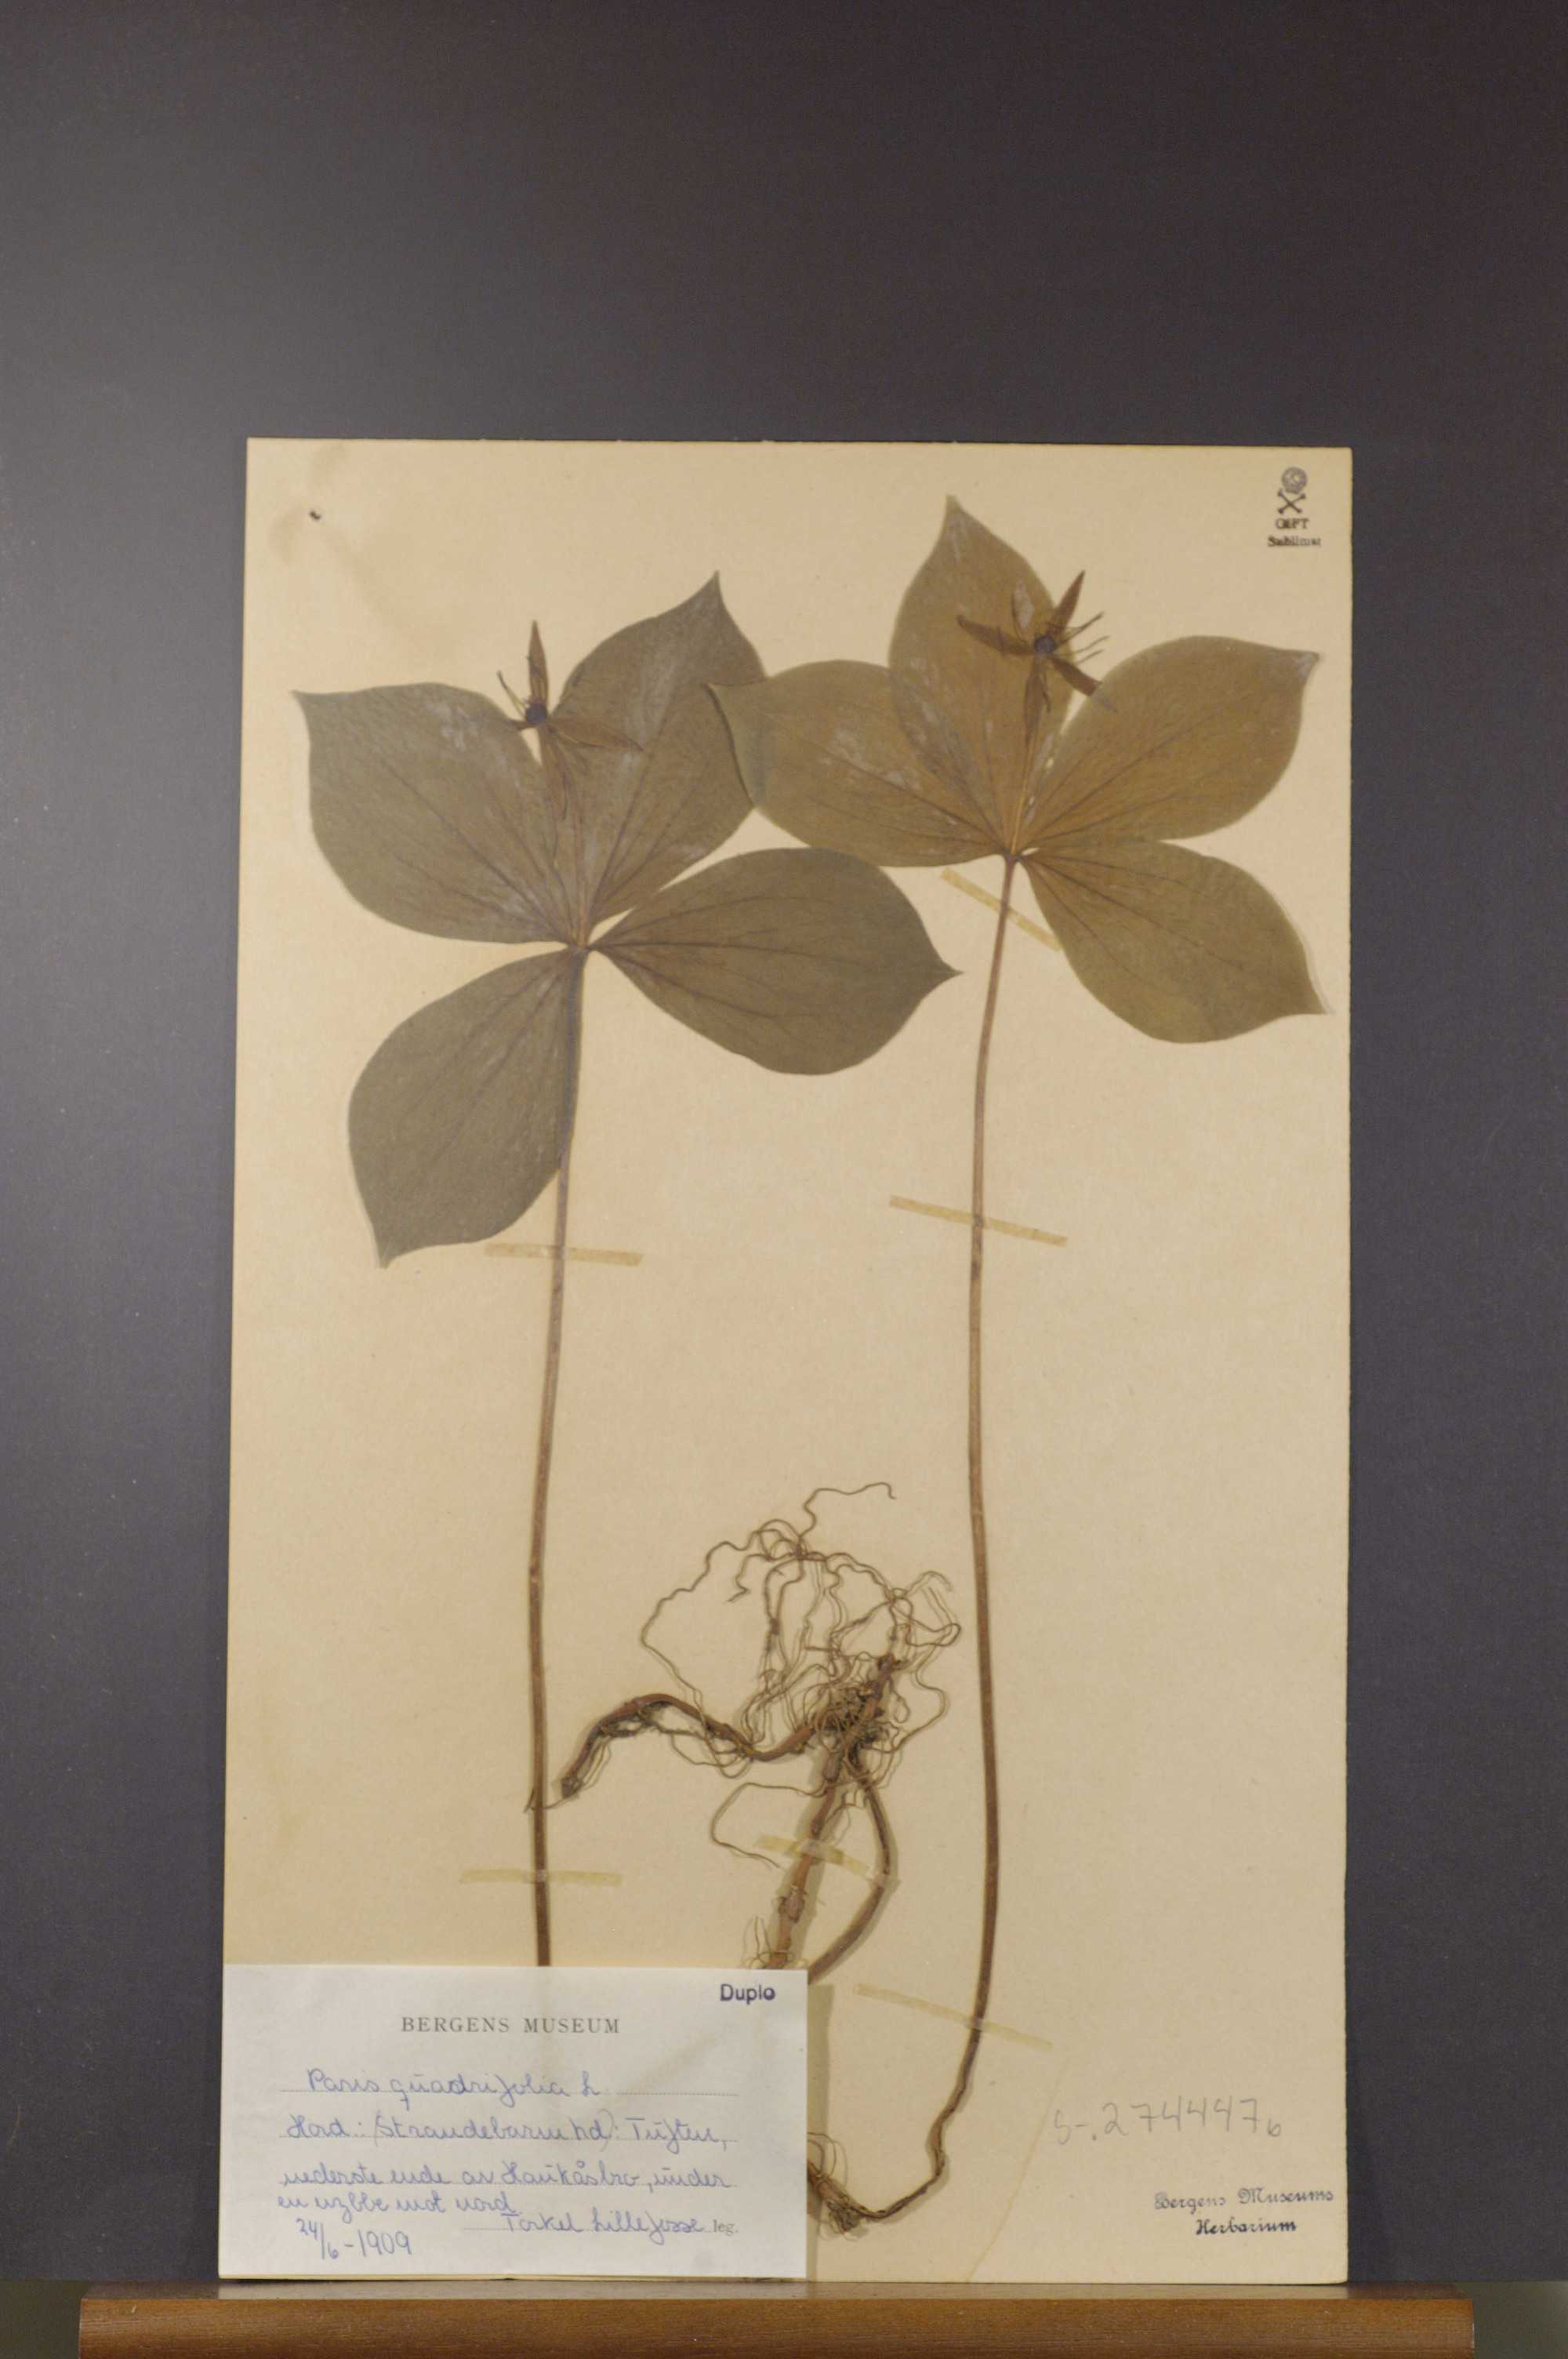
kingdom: Plantae
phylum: Tracheophyta
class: Liliopsida
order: Liliales
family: Melanthiaceae
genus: Paris
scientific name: Paris quadrifolia
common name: Herb-paris
